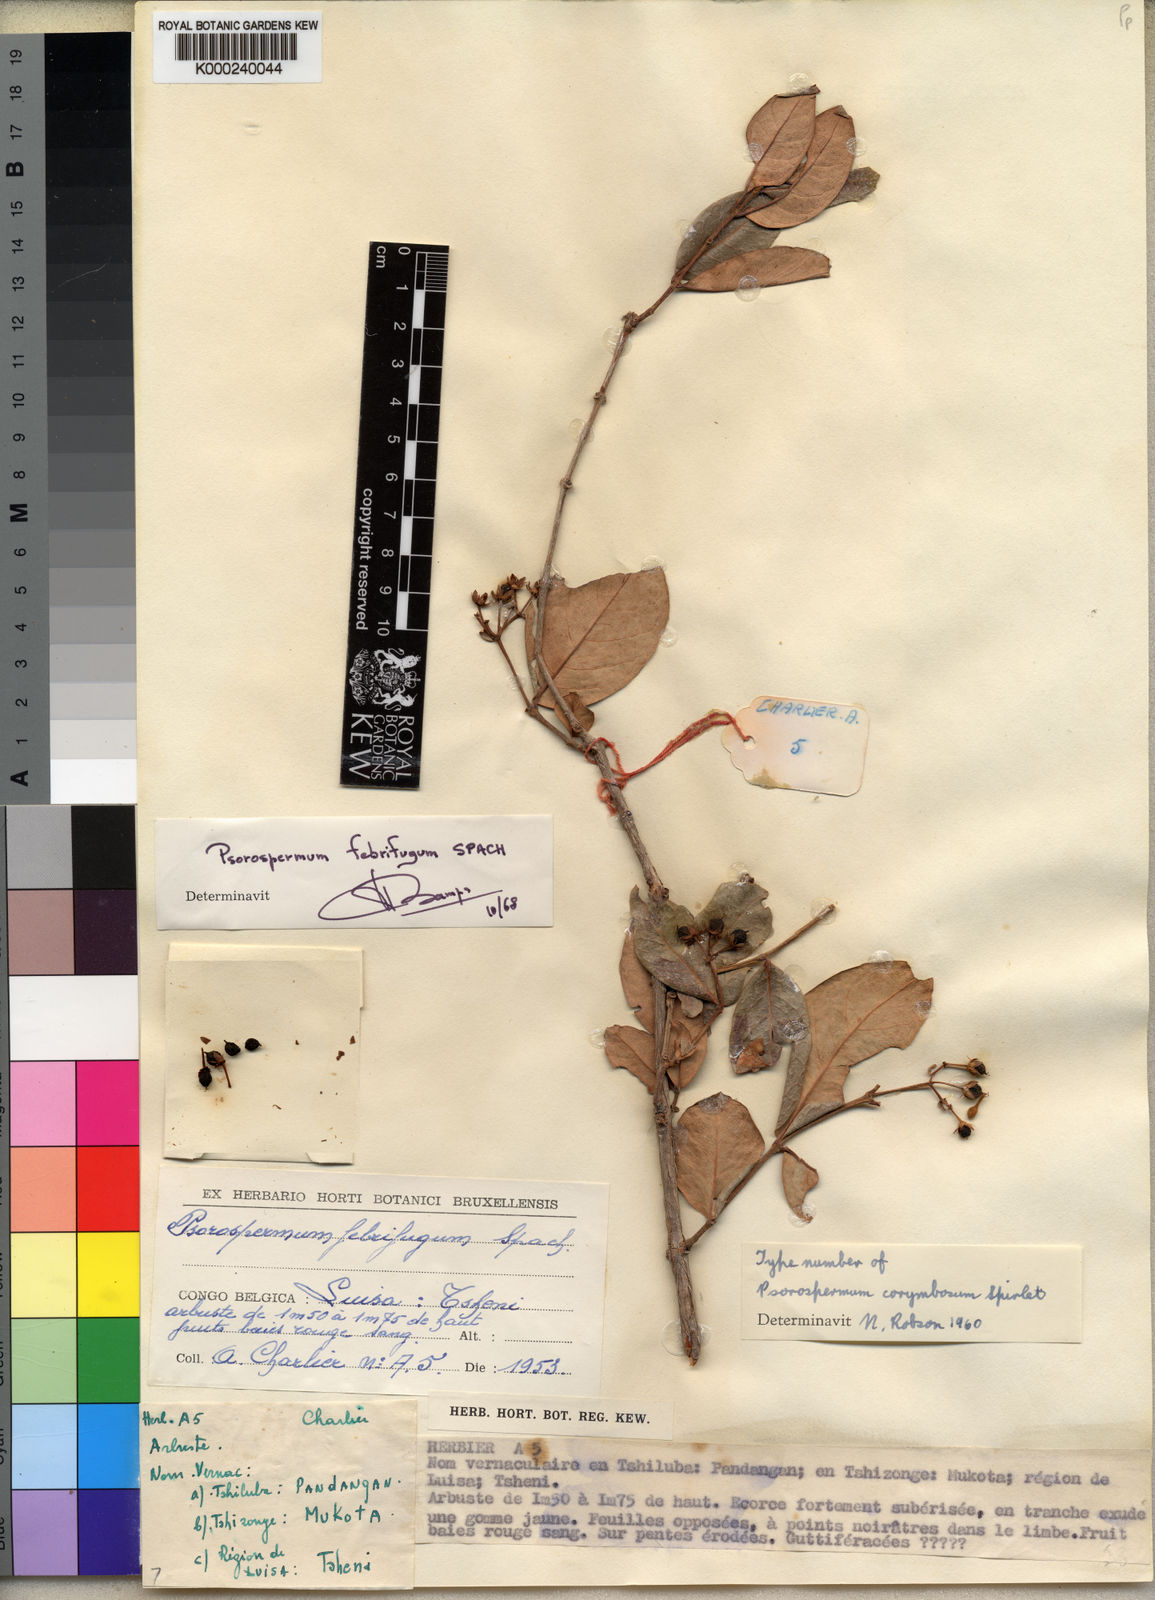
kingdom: Plantae
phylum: Tracheophyta
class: Magnoliopsida
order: Malpighiales
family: Hypericaceae
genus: Psorospermum
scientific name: Psorospermum corymbiferum
